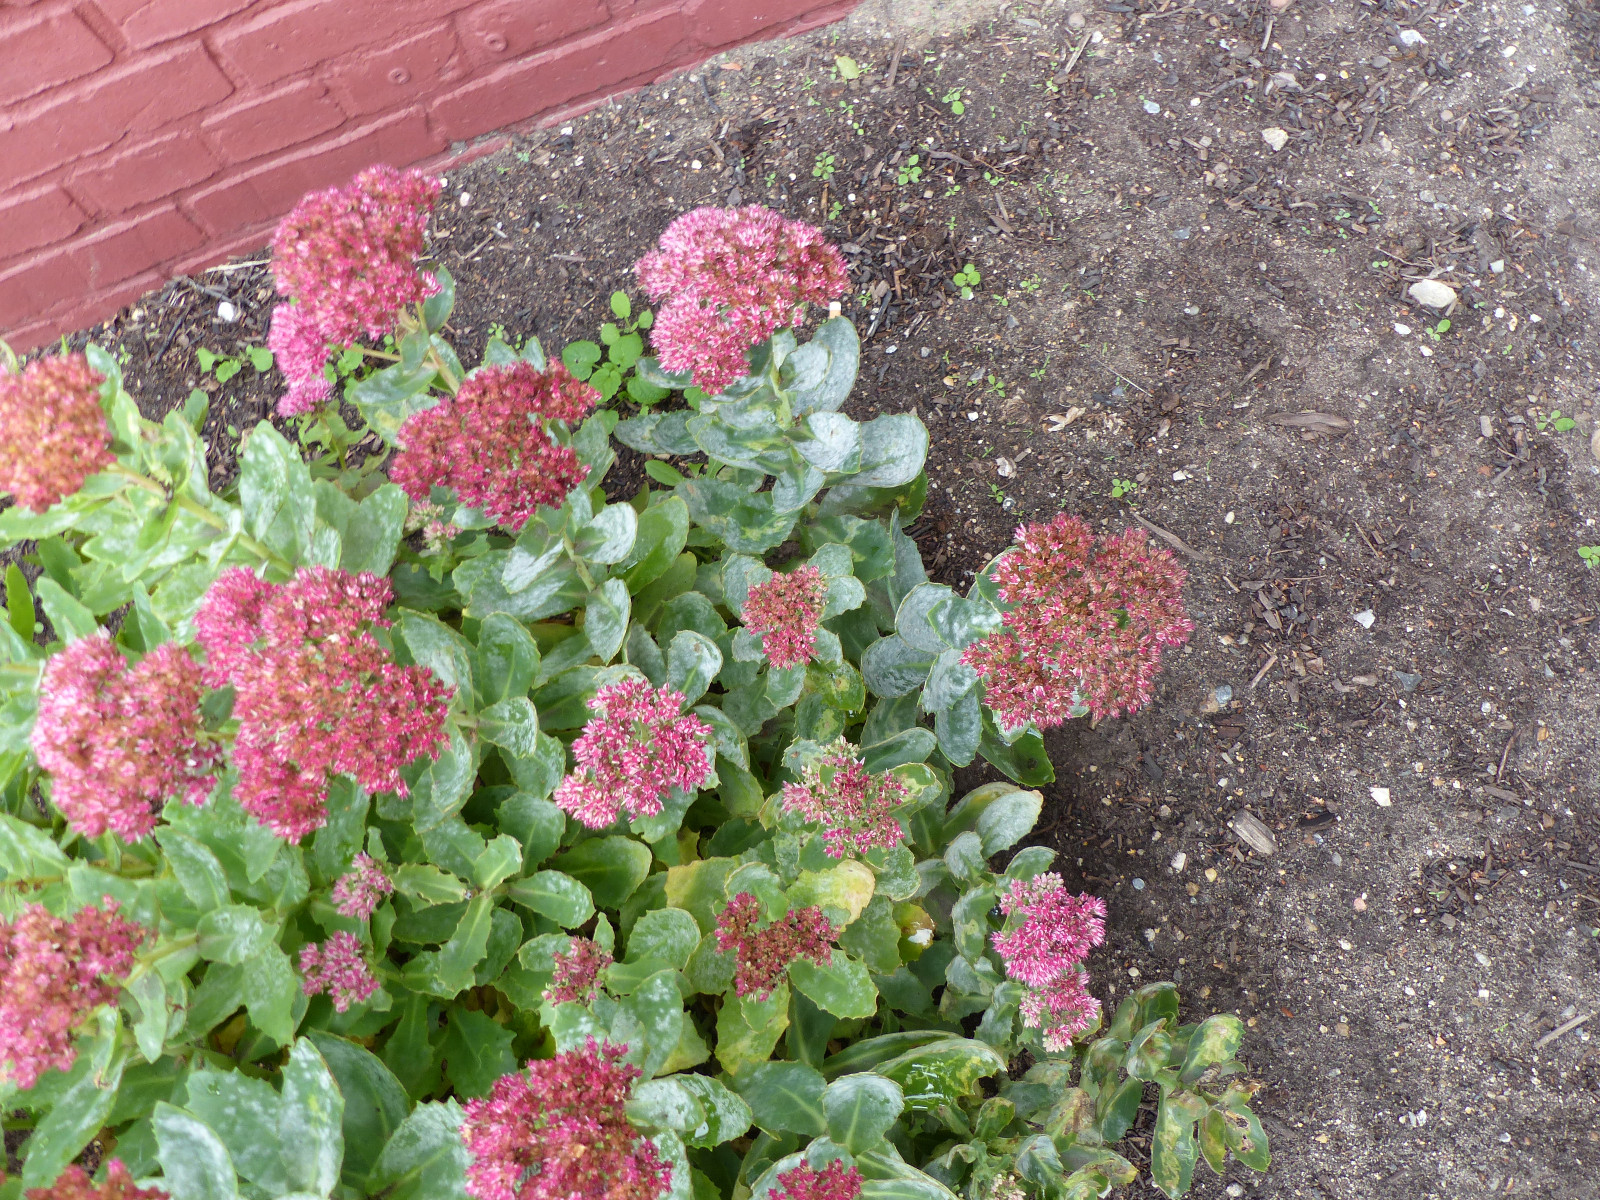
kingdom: Fungi
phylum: Ascomycota
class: Leotiomycetes
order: Helotiales
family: Erysiphaceae
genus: Erysiphe
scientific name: Erysiphe sedi
